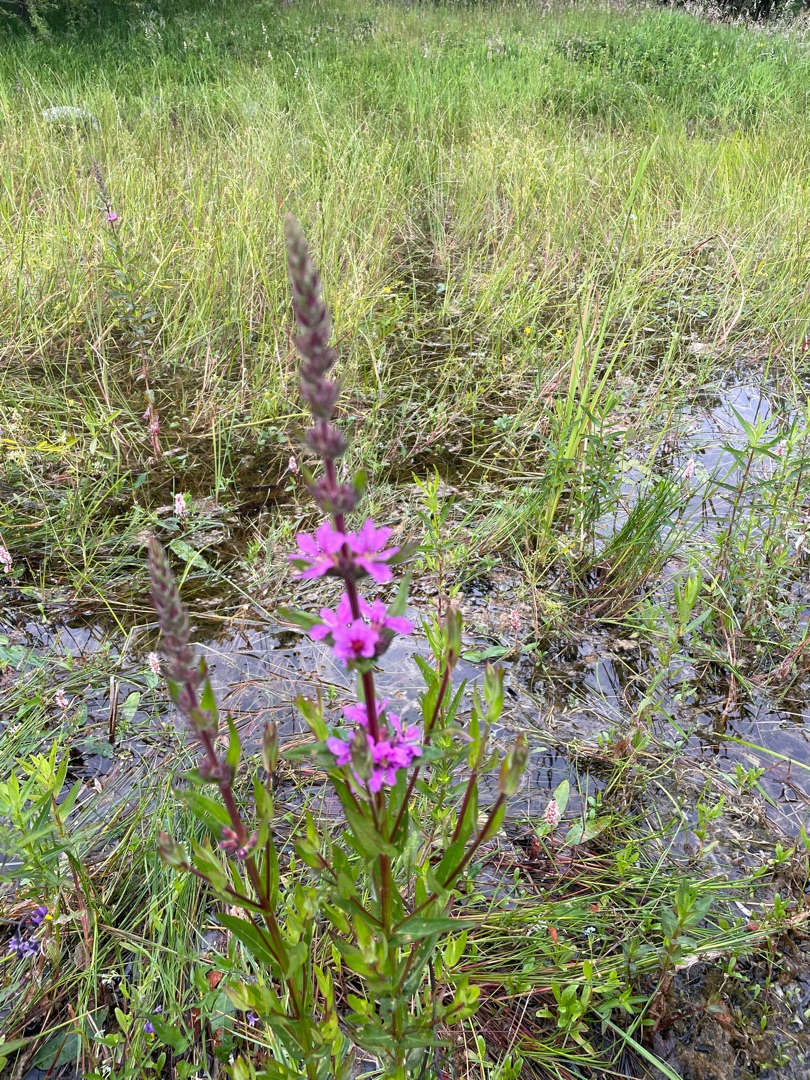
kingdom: Plantae
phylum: Tracheophyta
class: Magnoliopsida
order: Myrtales
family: Lythraceae
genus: Lythrum
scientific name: Lythrum salicaria
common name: Kattehale
